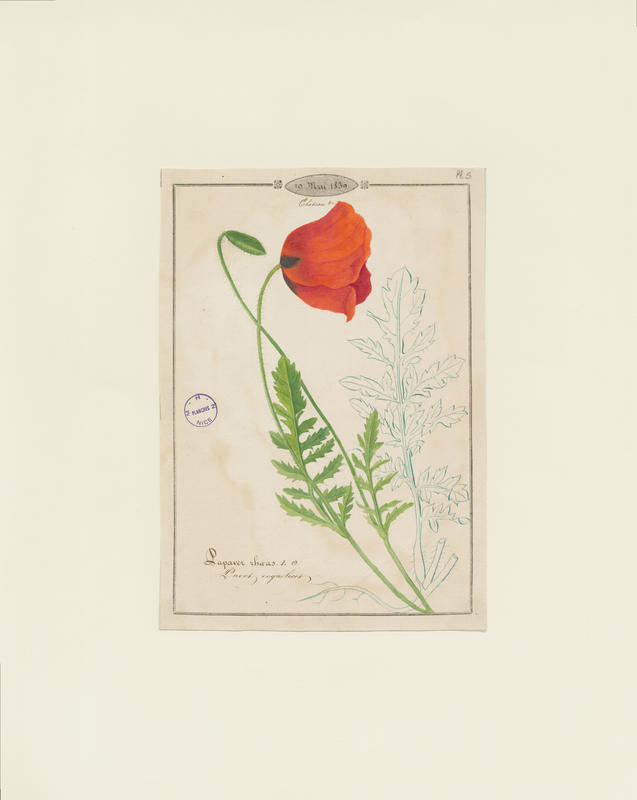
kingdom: Plantae
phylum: Tracheophyta
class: Magnoliopsida
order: Ranunculales
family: Papaveraceae
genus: Papaver
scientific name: Papaver rhoeas
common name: Corn poppy
